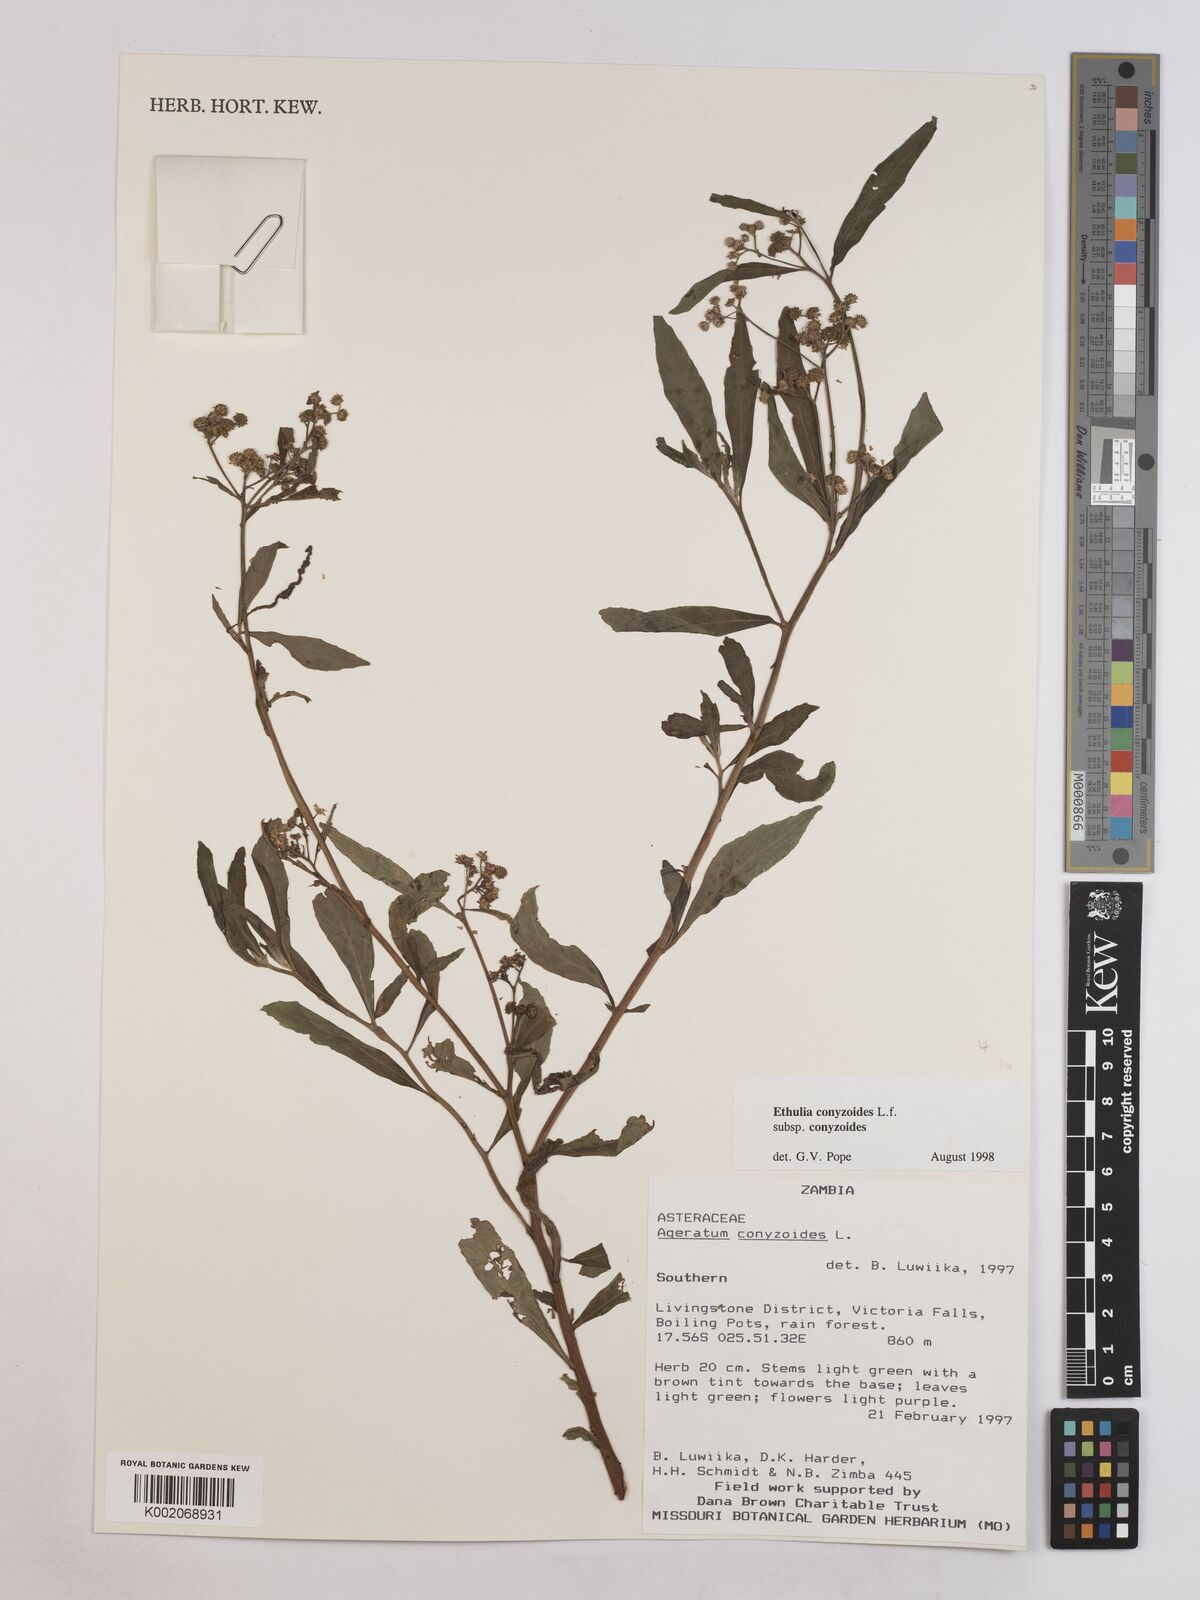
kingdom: Plantae
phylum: Tracheophyta
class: Magnoliopsida
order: Asterales
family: Asteraceae
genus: Ethulia
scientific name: Ethulia conyzoides
